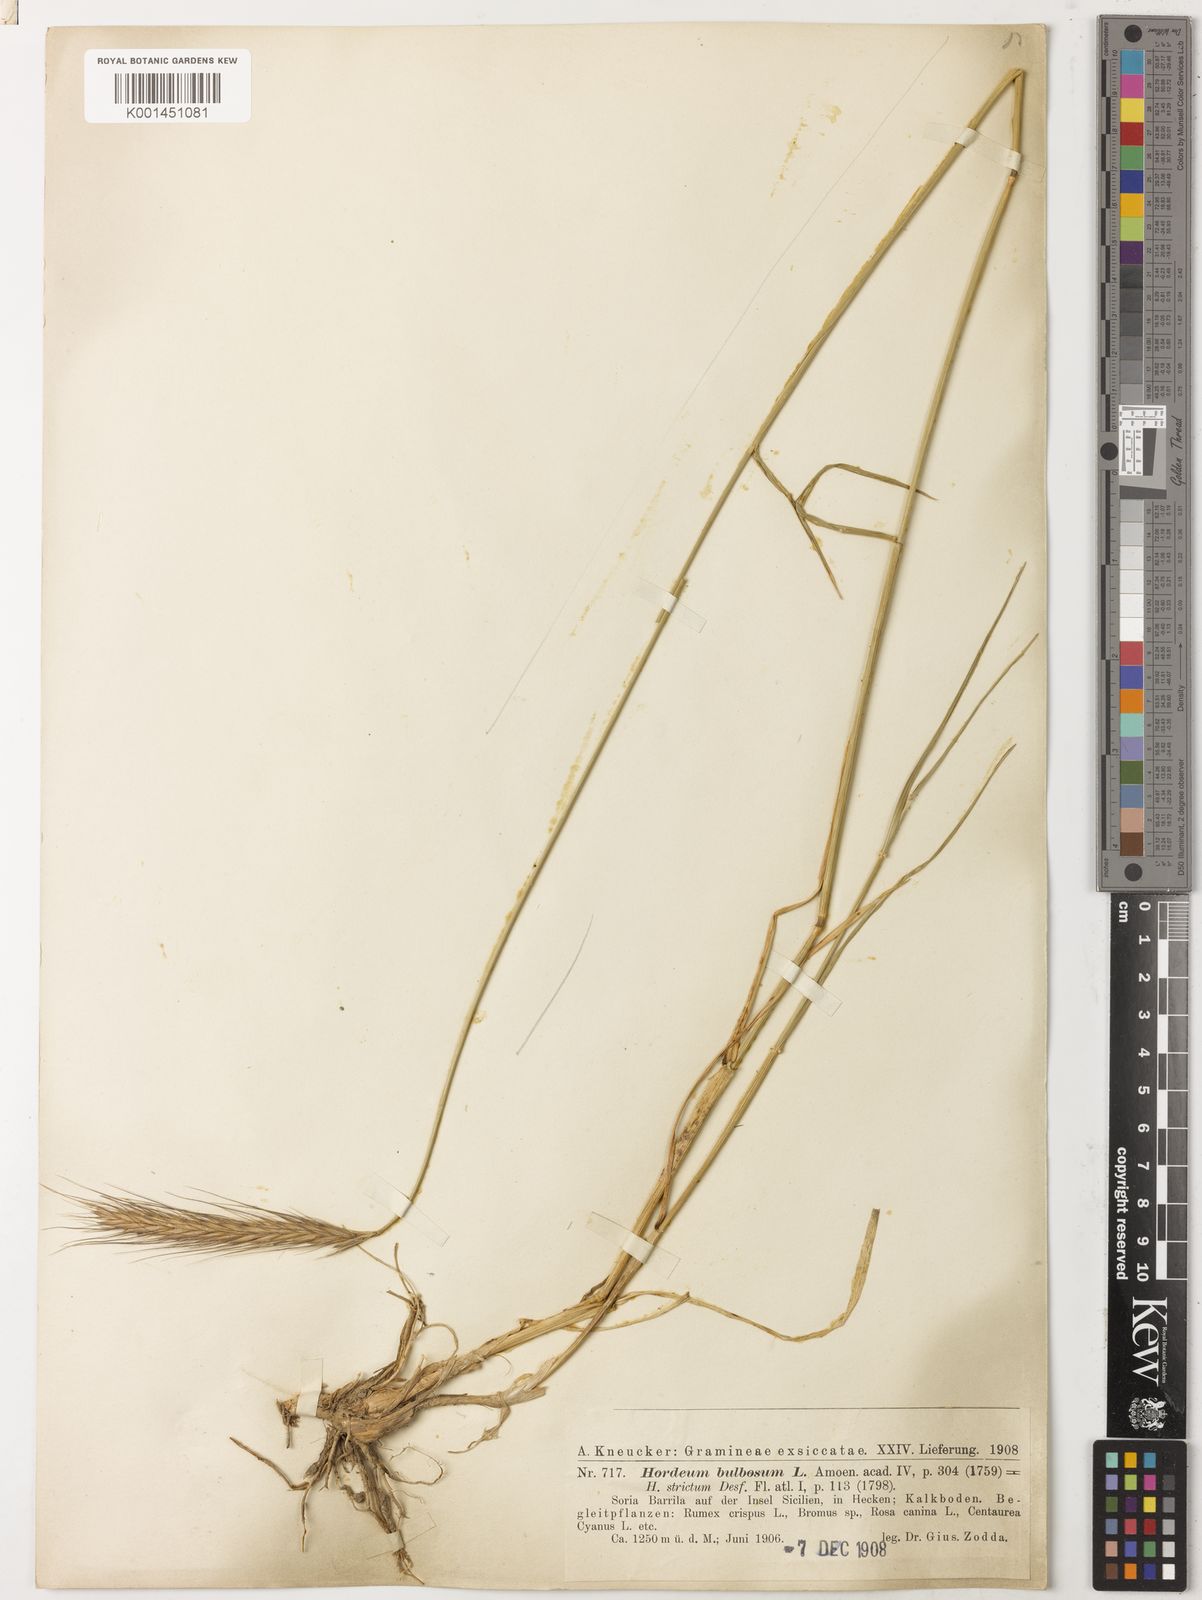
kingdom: Plantae
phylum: Tracheophyta
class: Liliopsida
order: Poales
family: Poaceae
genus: Hordeum
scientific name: Hordeum bulbosum
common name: Bulbous barley
